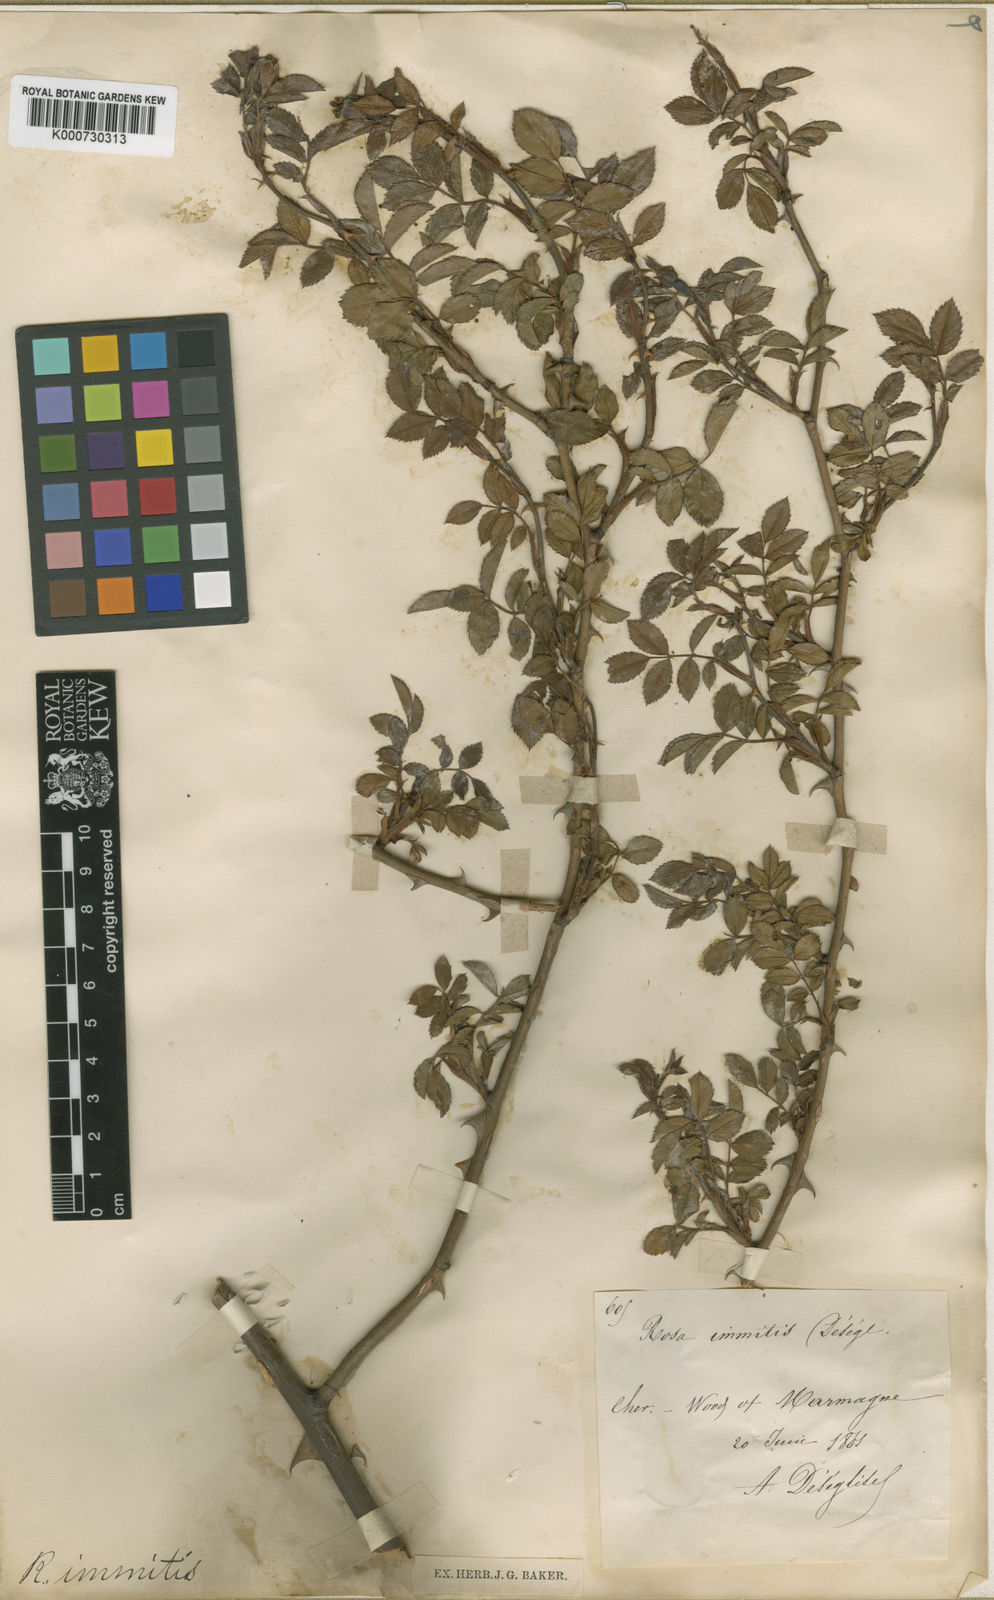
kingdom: Plantae
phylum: Tracheophyta
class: Magnoliopsida
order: Rosales
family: Rosaceae
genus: Rosa
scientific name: Rosa stylosa
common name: Short-styled field-rose
